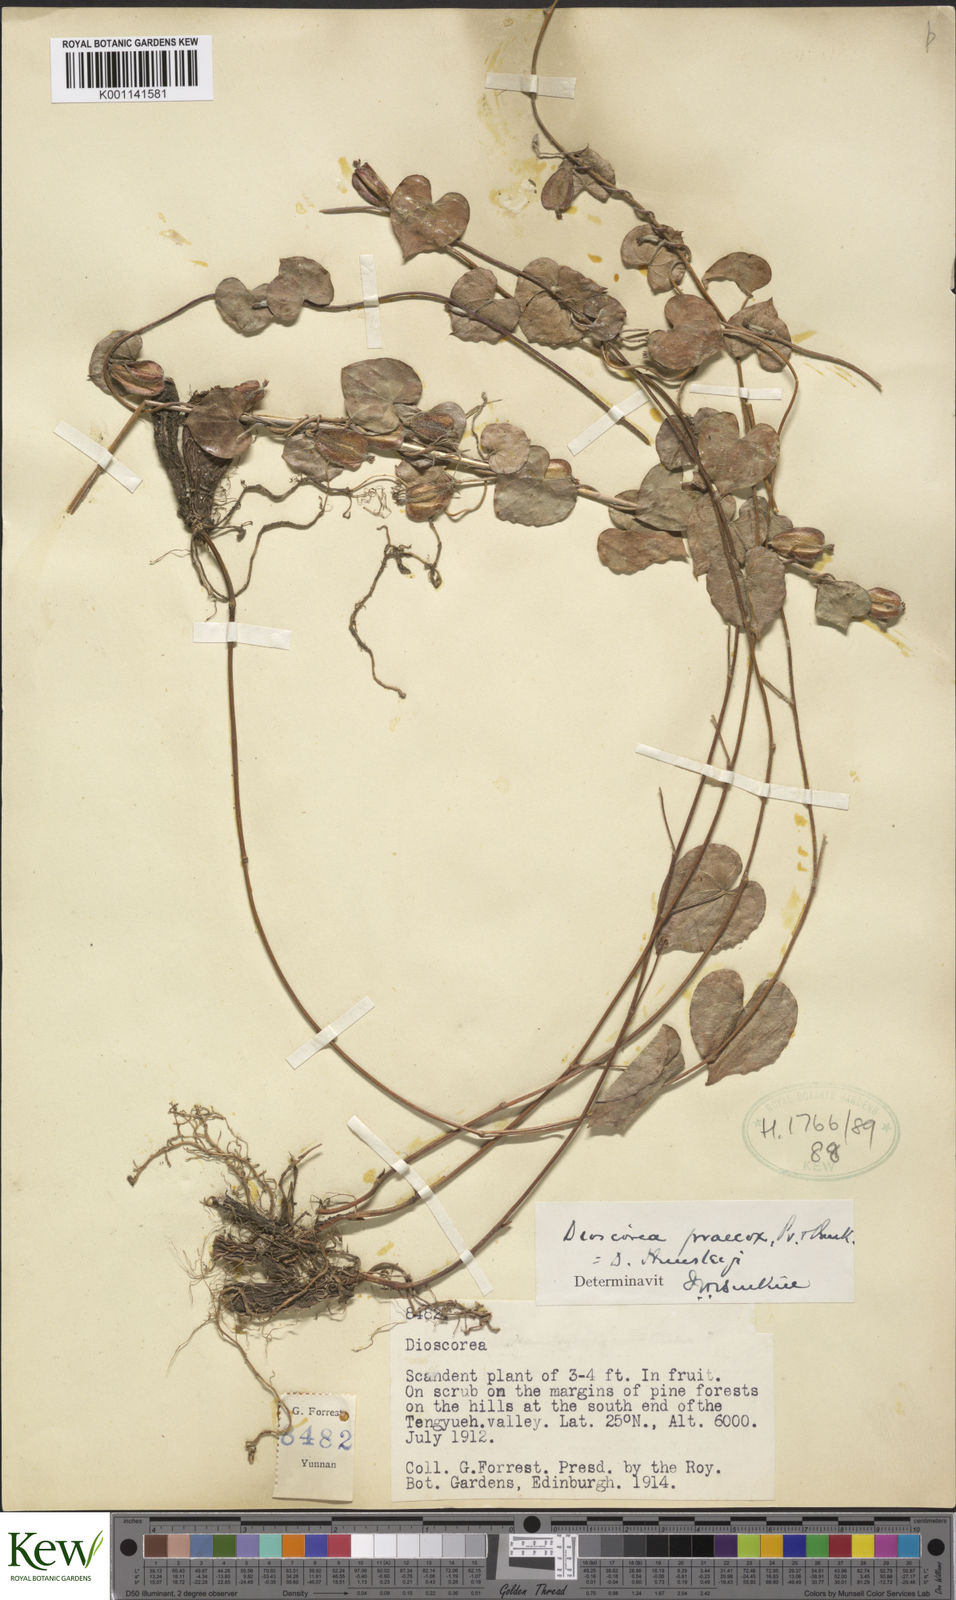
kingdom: Plantae
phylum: Tracheophyta
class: Liliopsida
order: Dioscoreales
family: Dioscoreaceae
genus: Dioscorea
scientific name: Dioscorea hemsleyi
